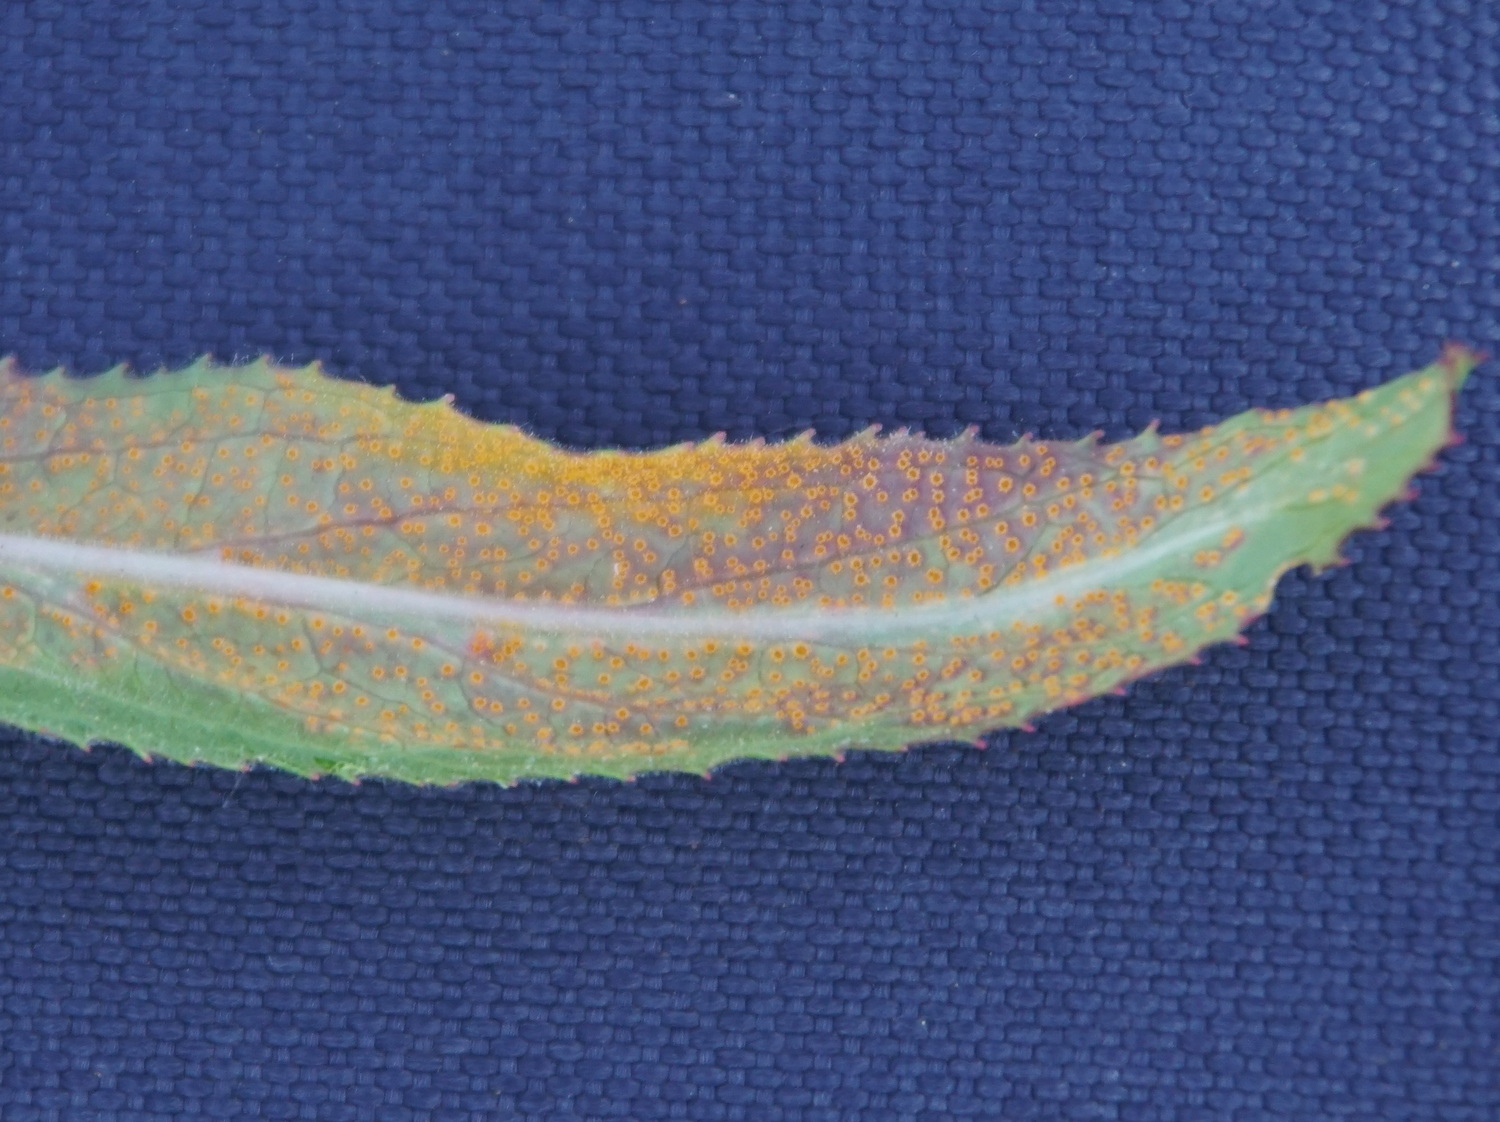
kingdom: Fungi
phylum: Basidiomycota
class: Pucciniomycetes
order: Pucciniales
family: Pucciniaceae
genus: Puccinia
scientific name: Puccinia pulverulenta
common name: dueurt-tvecellerust
